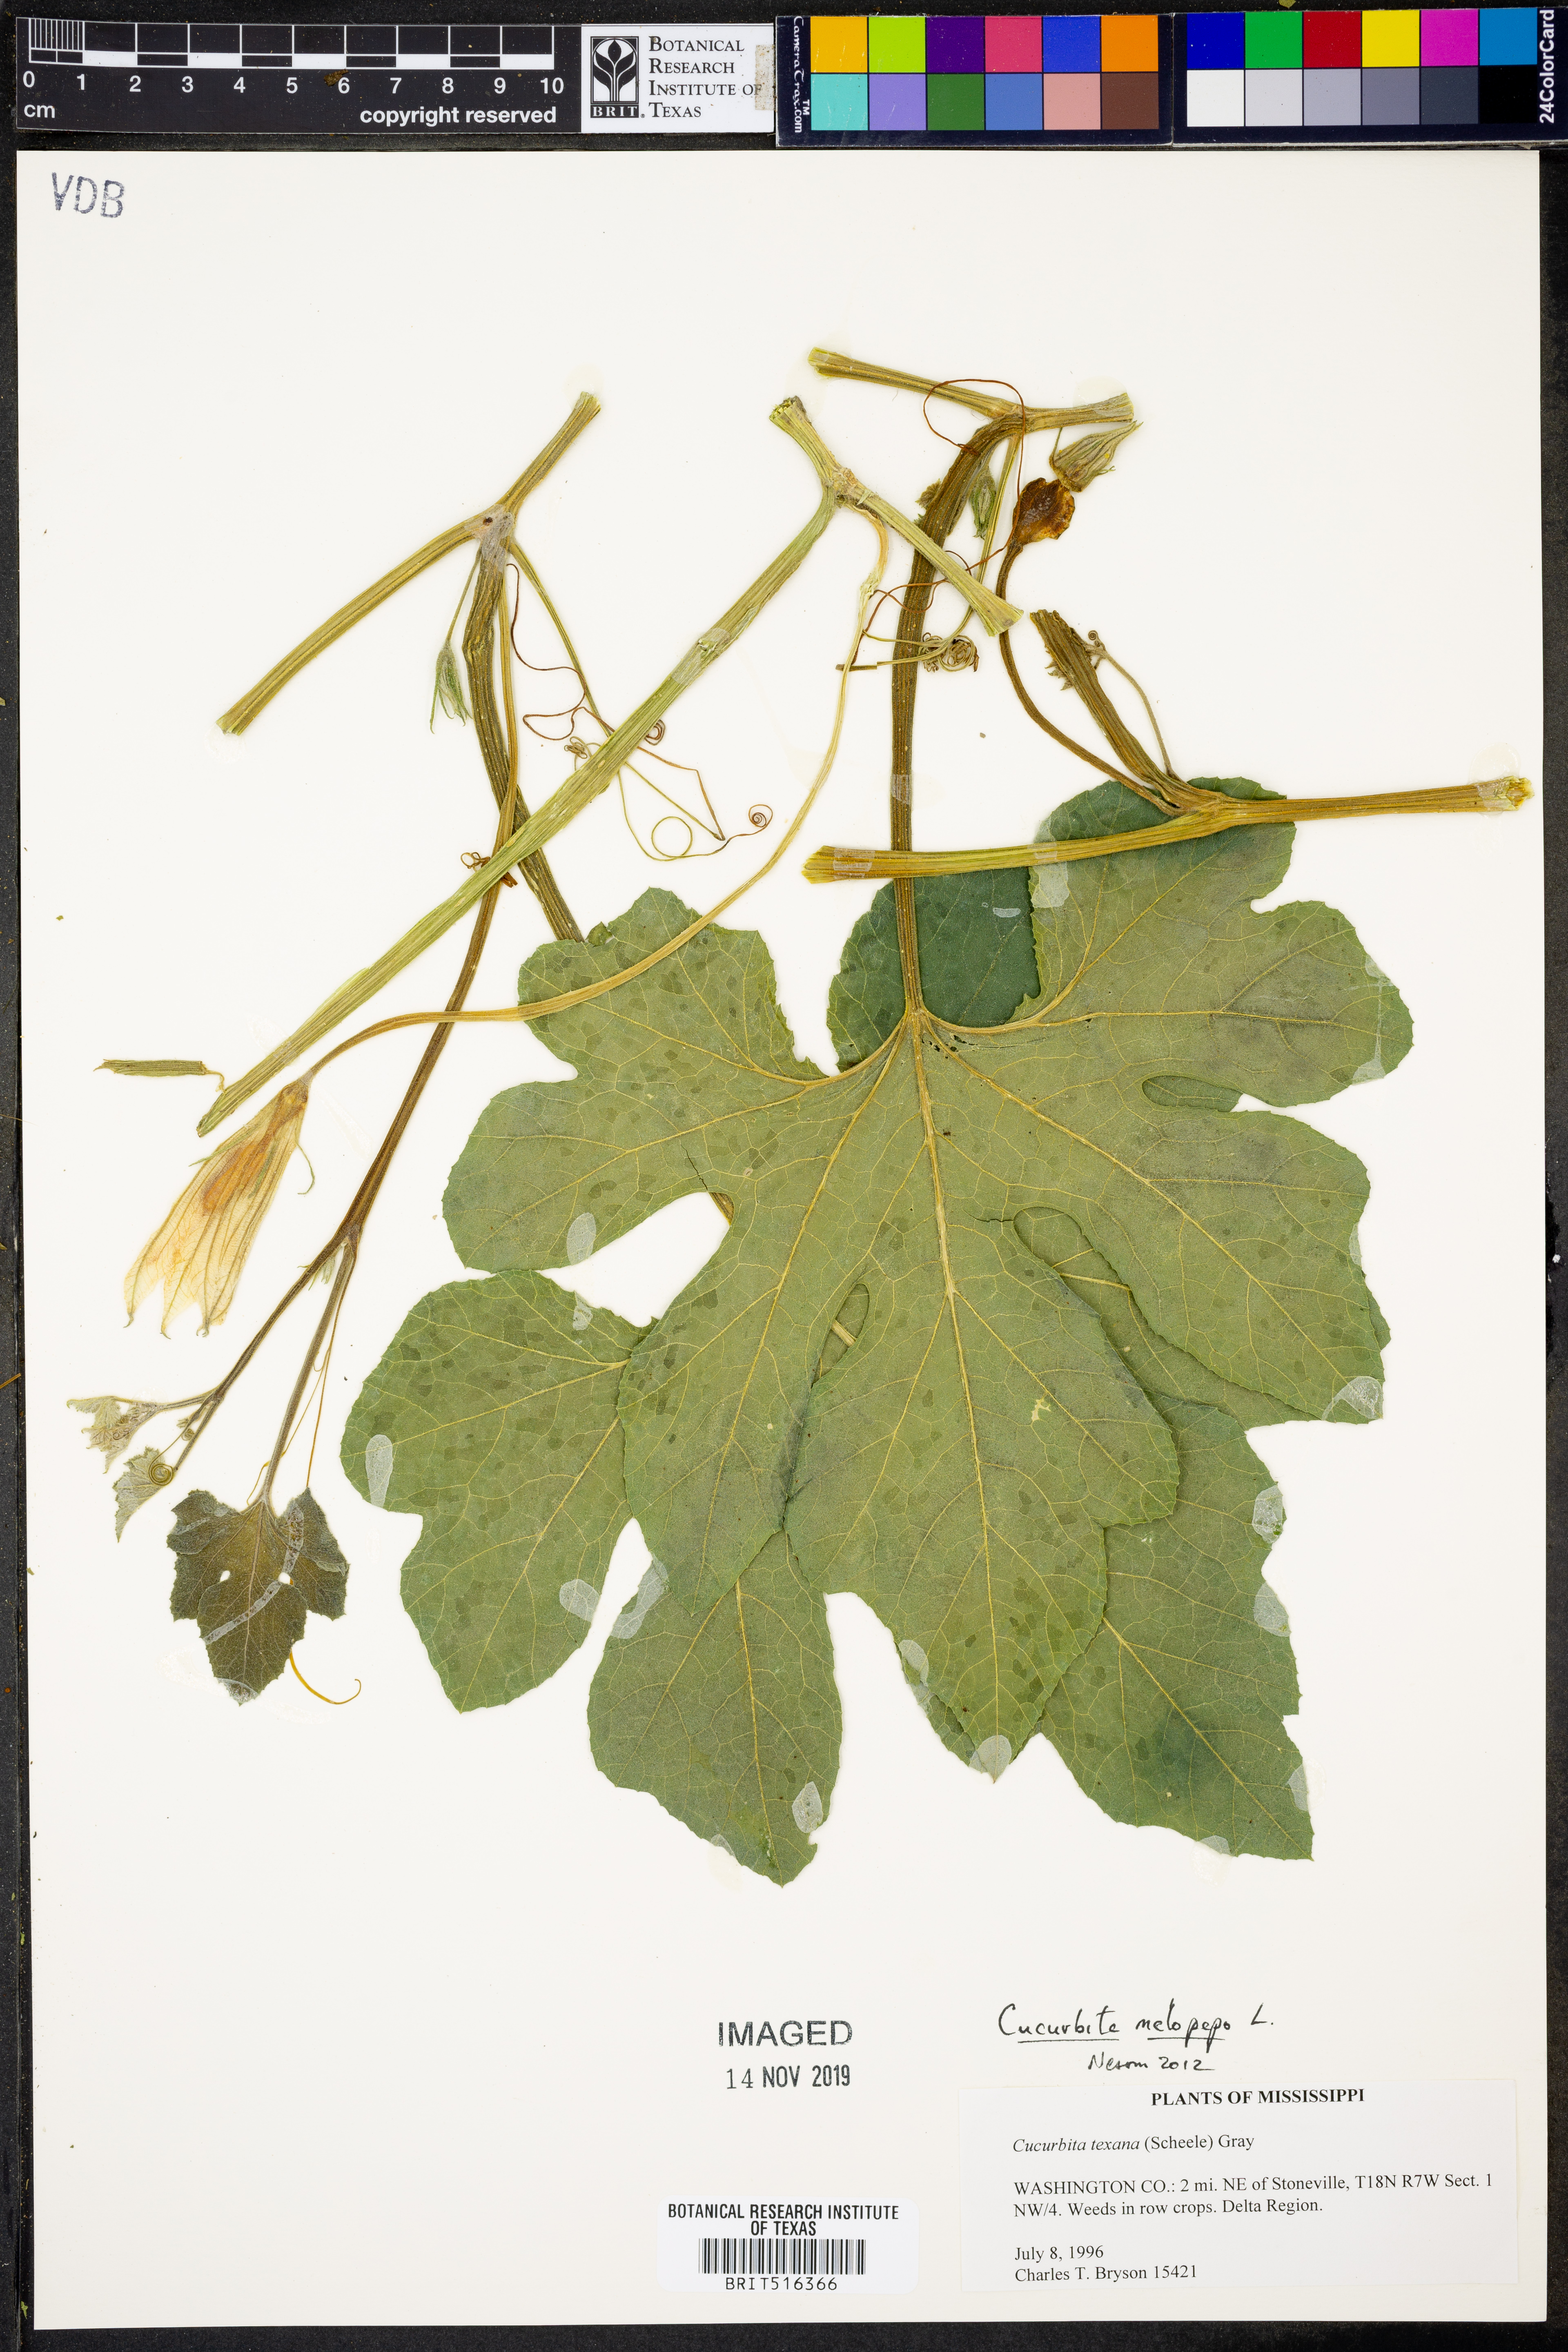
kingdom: Plantae
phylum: Tracheophyta
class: Magnoliopsida
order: Cucurbitales
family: Cucurbitaceae
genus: Cucurbita
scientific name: Cucurbita melopepo
